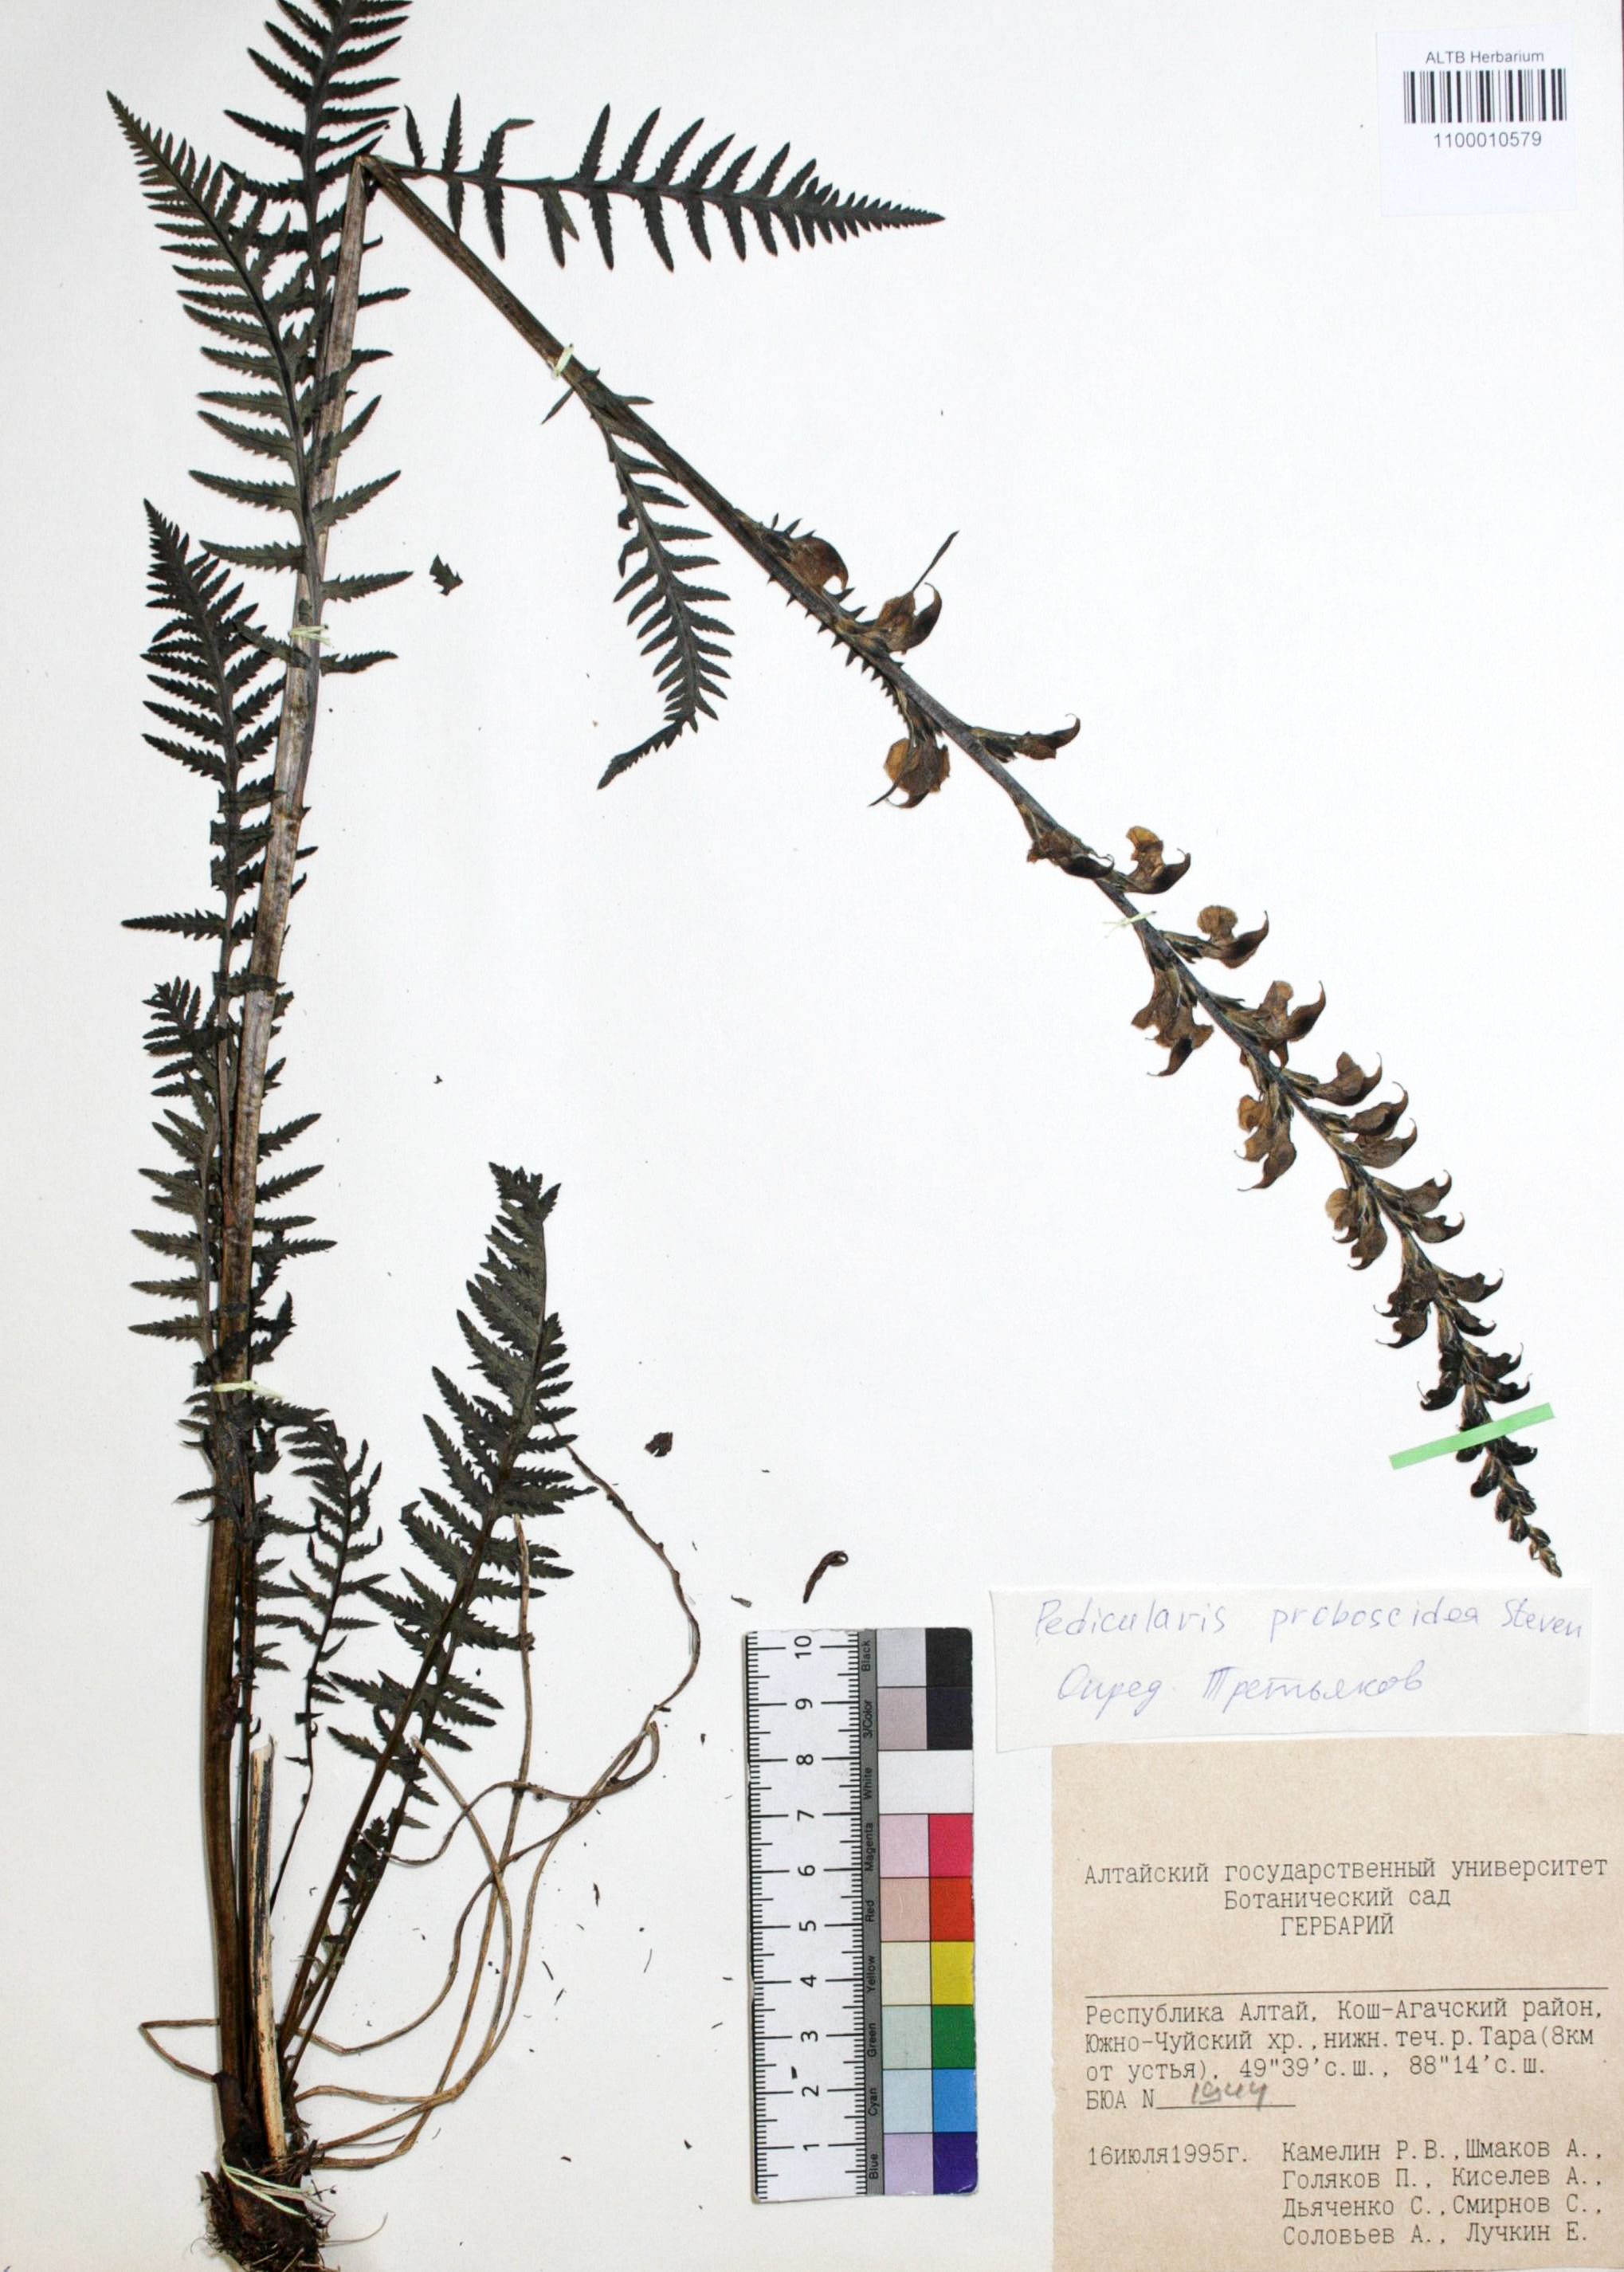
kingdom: Plantae
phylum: Tracheophyta
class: Magnoliopsida
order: Lamiales
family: Orobanchaceae
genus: Pedicularis
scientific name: Pedicularis proboscidea
